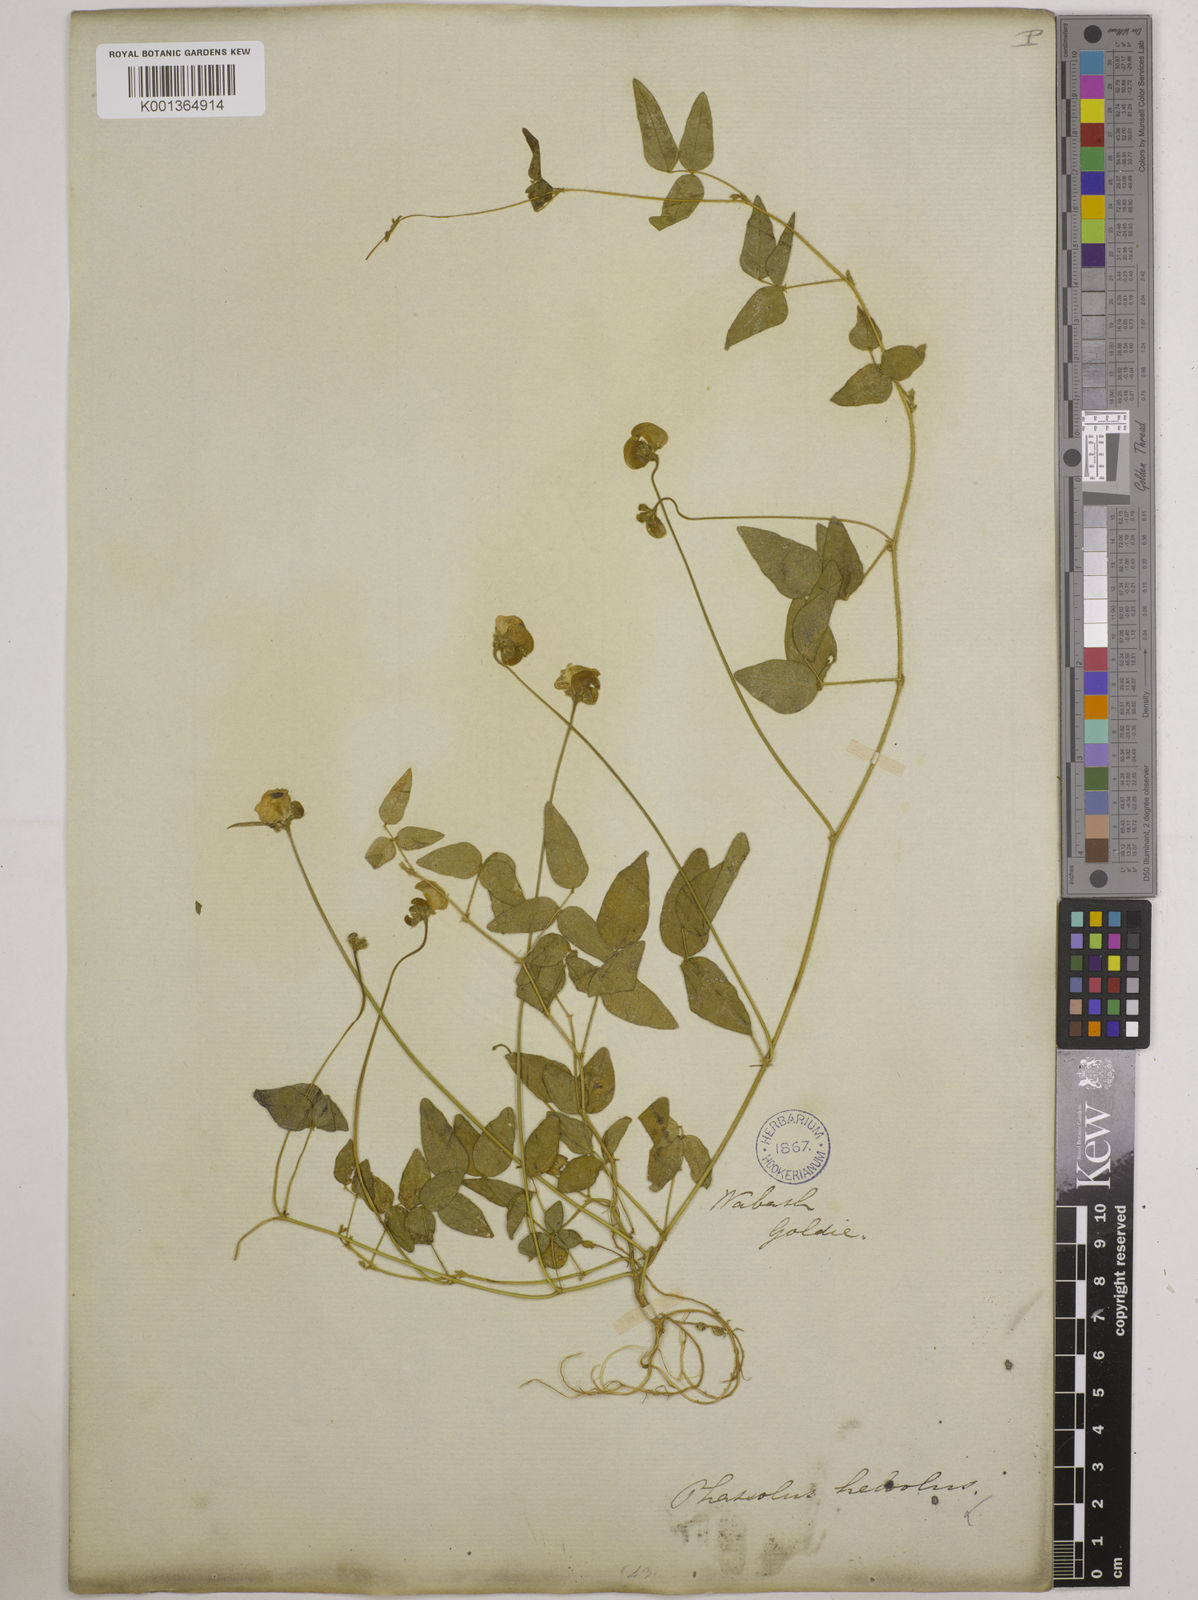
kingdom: Plantae
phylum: Tracheophyta
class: Magnoliopsida
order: Fabales
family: Fabaceae
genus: Strophostyles
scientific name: Strophostyles
